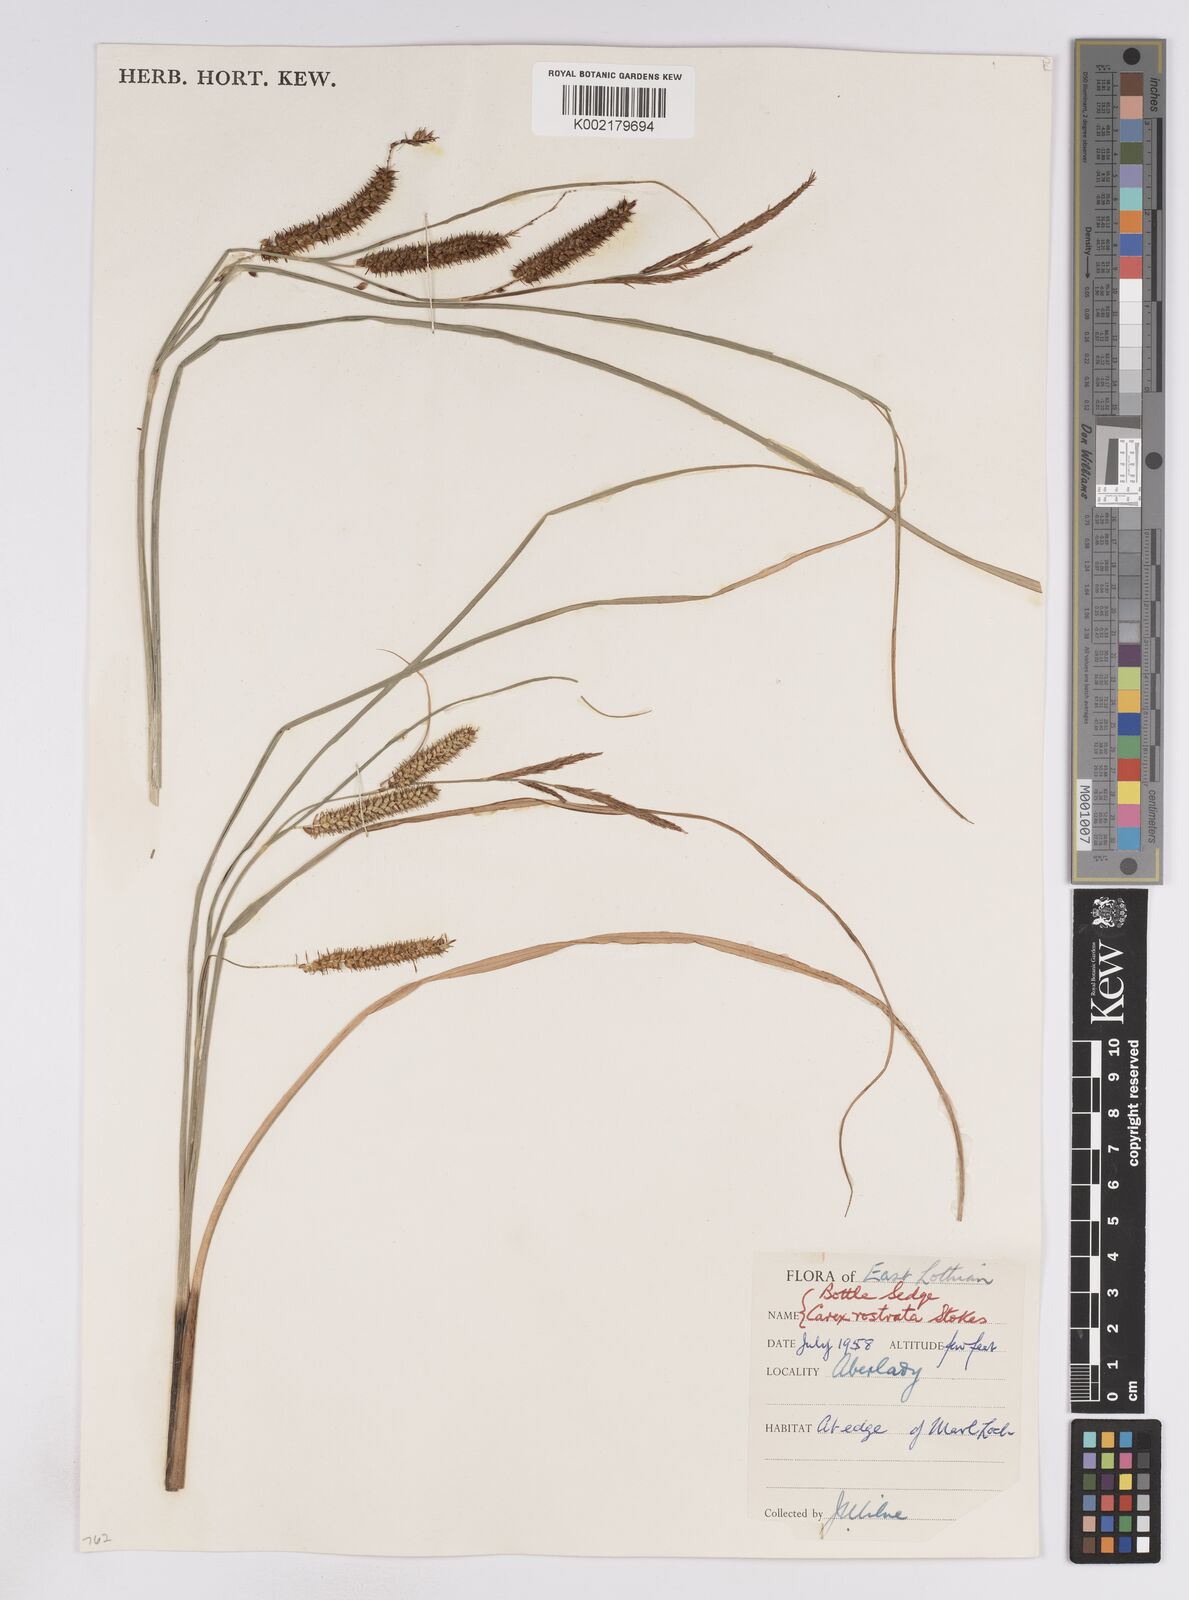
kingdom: Plantae
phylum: Tracheophyta
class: Liliopsida
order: Poales
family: Cyperaceae
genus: Carex
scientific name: Carex rostrata
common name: Bottle sedge
